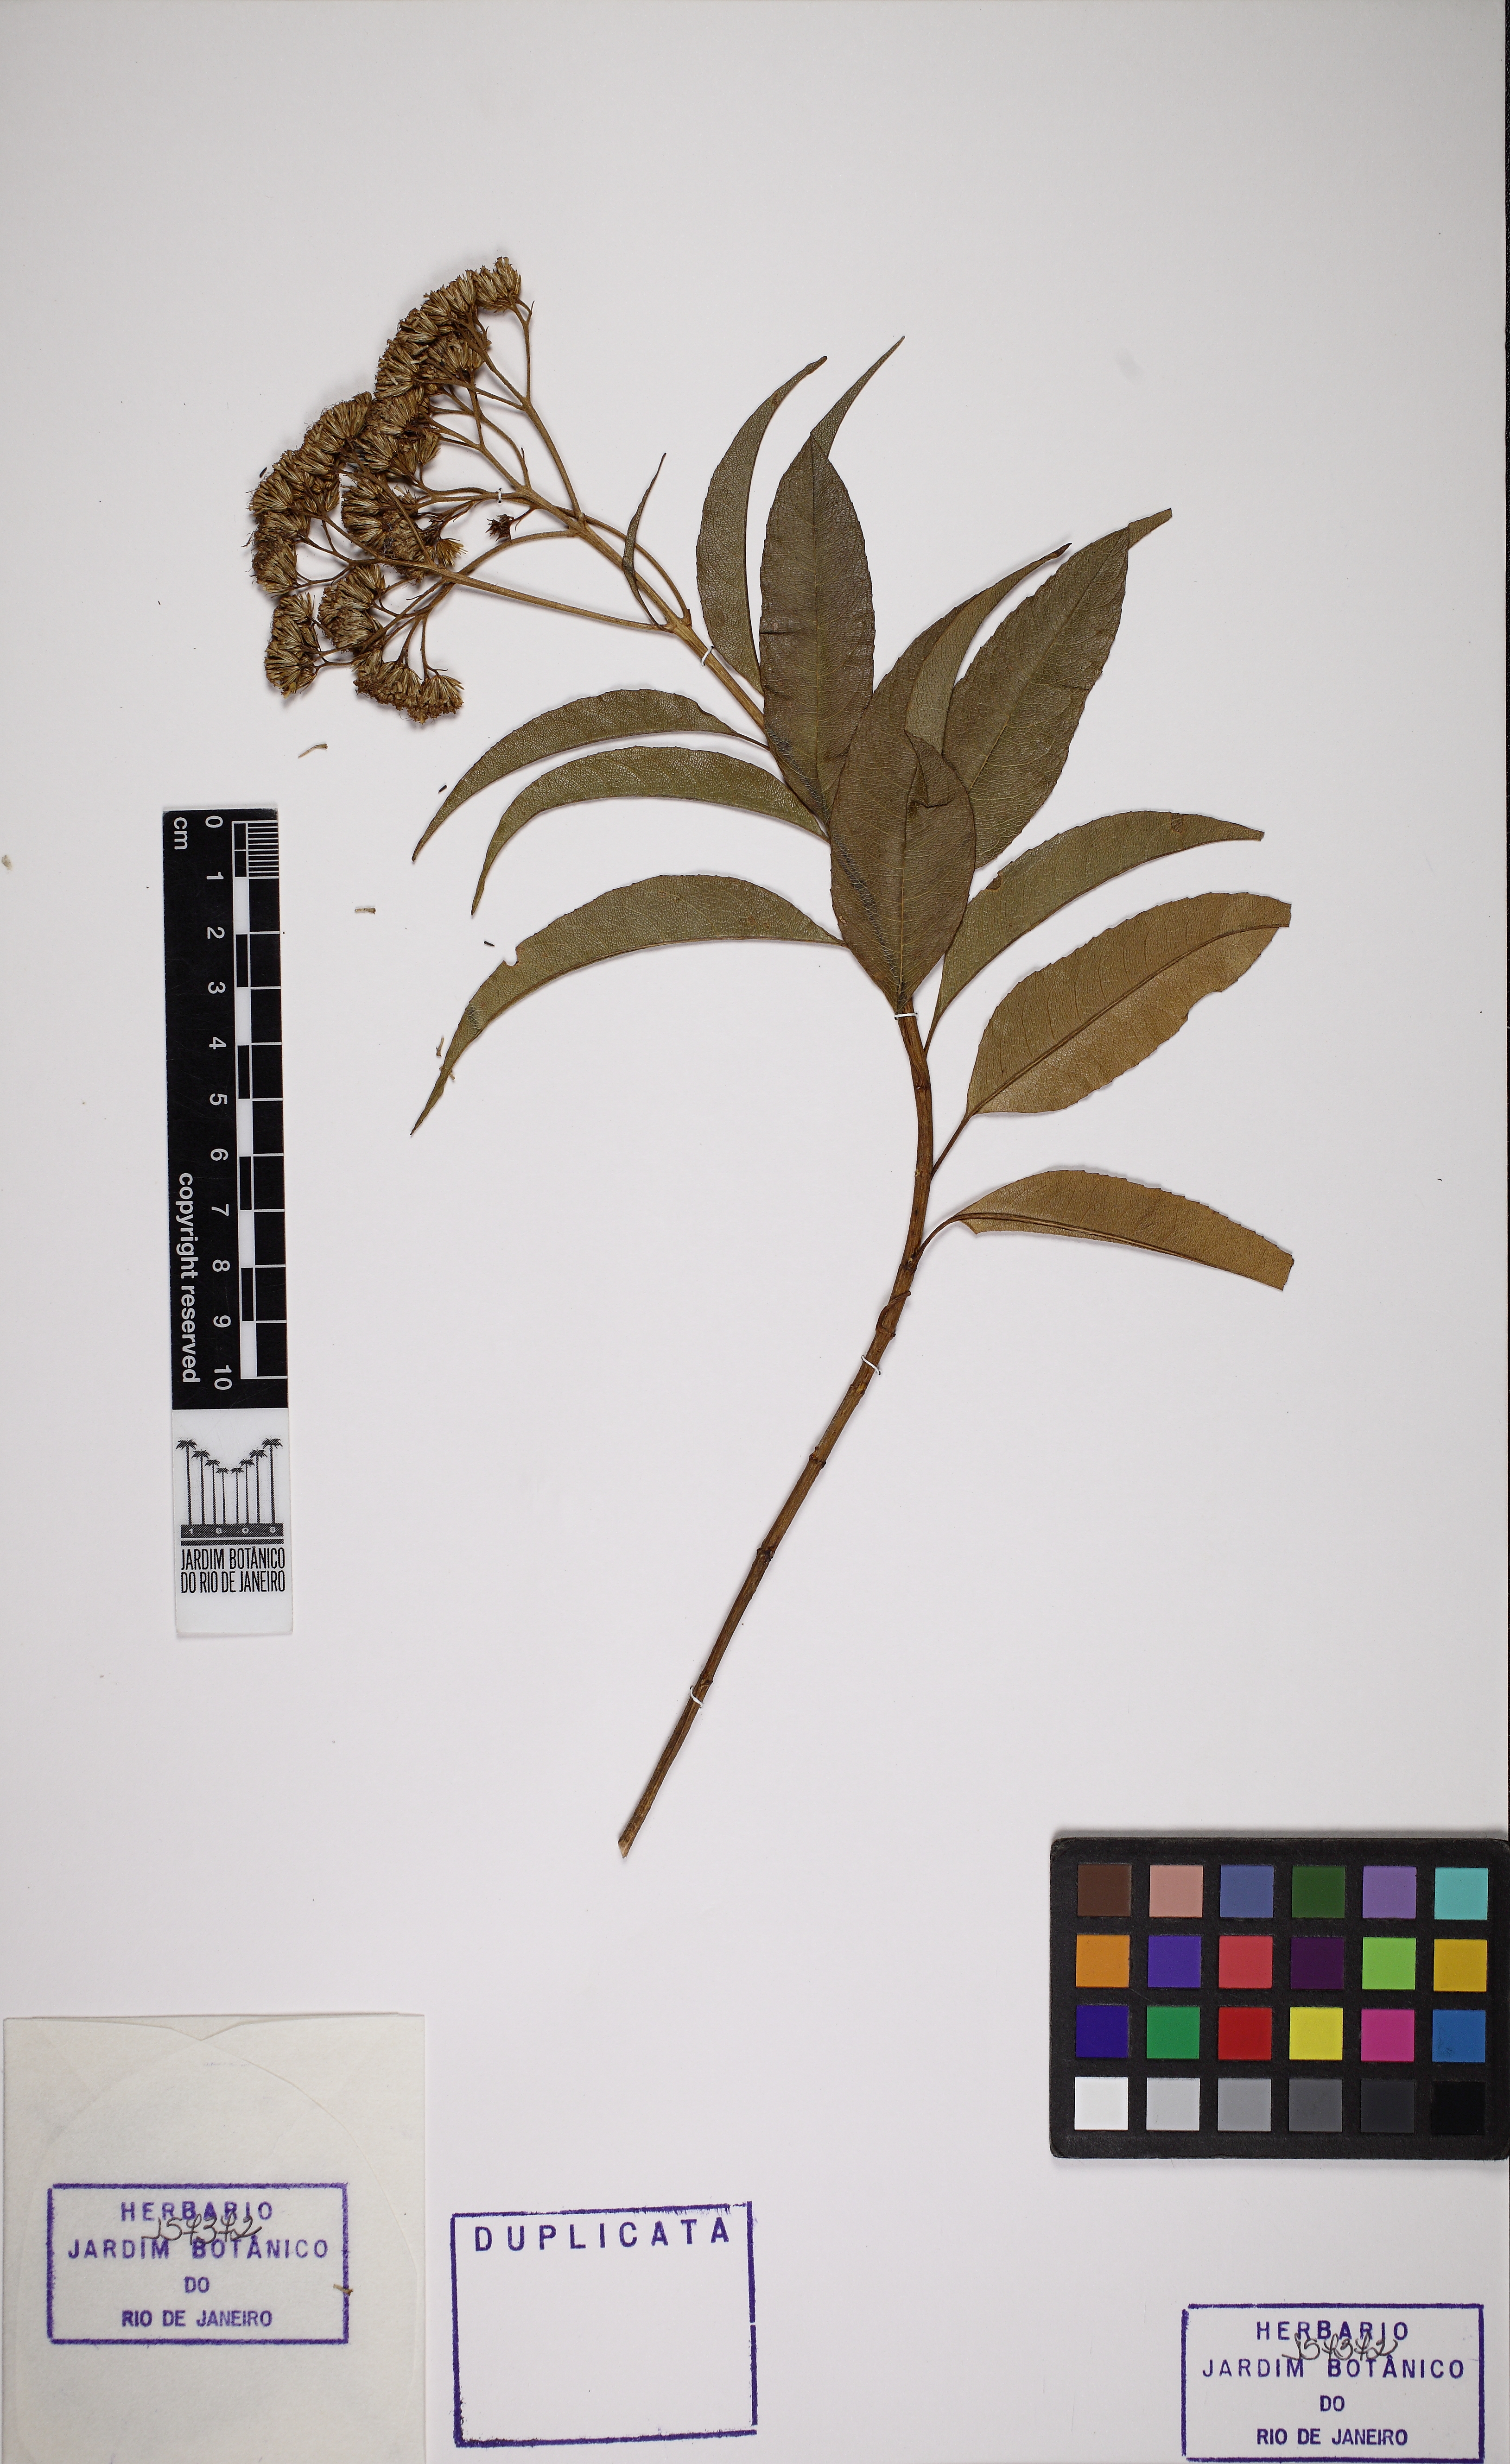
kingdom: Plantae
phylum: Tracheophyta
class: Magnoliopsida
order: Asterales
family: Asteraceae
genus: Acritopappus
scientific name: Acritopappus confertus
